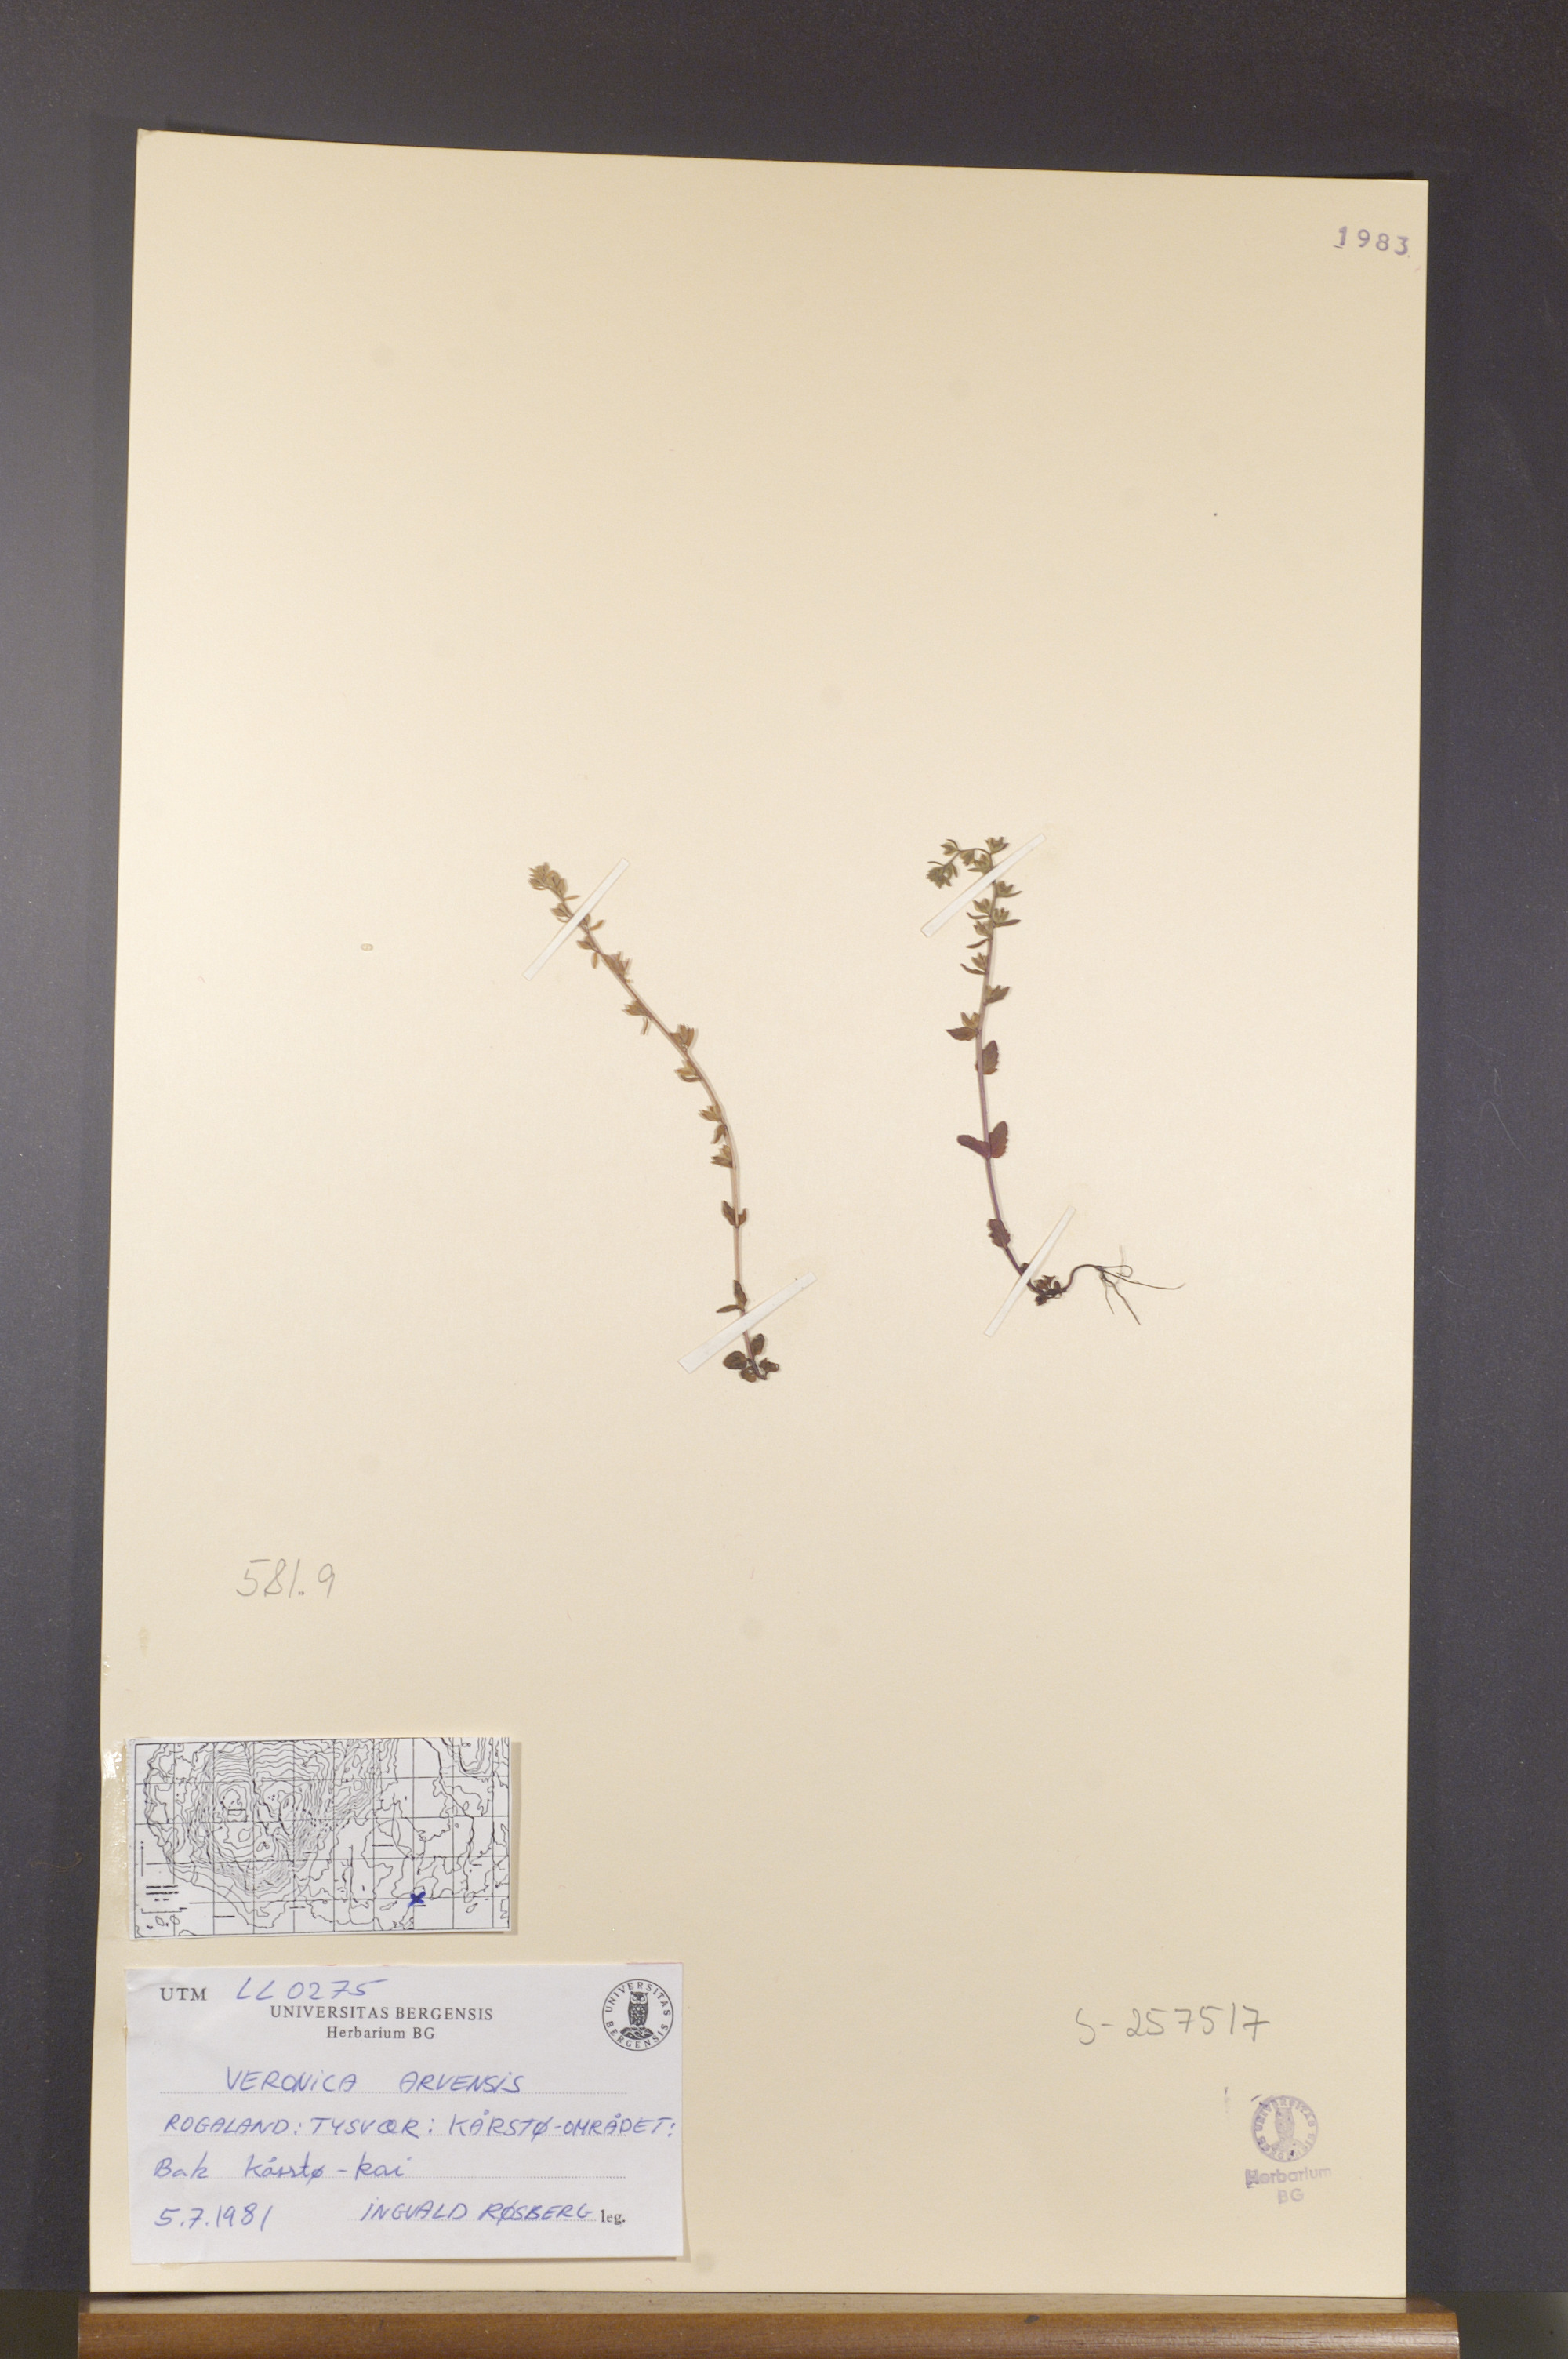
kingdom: Plantae
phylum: Tracheophyta
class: Magnoliopsida
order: Lamiales
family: Plantaginaceae
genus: Veronica
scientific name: Veronica arvensis
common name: Corn speedwell
